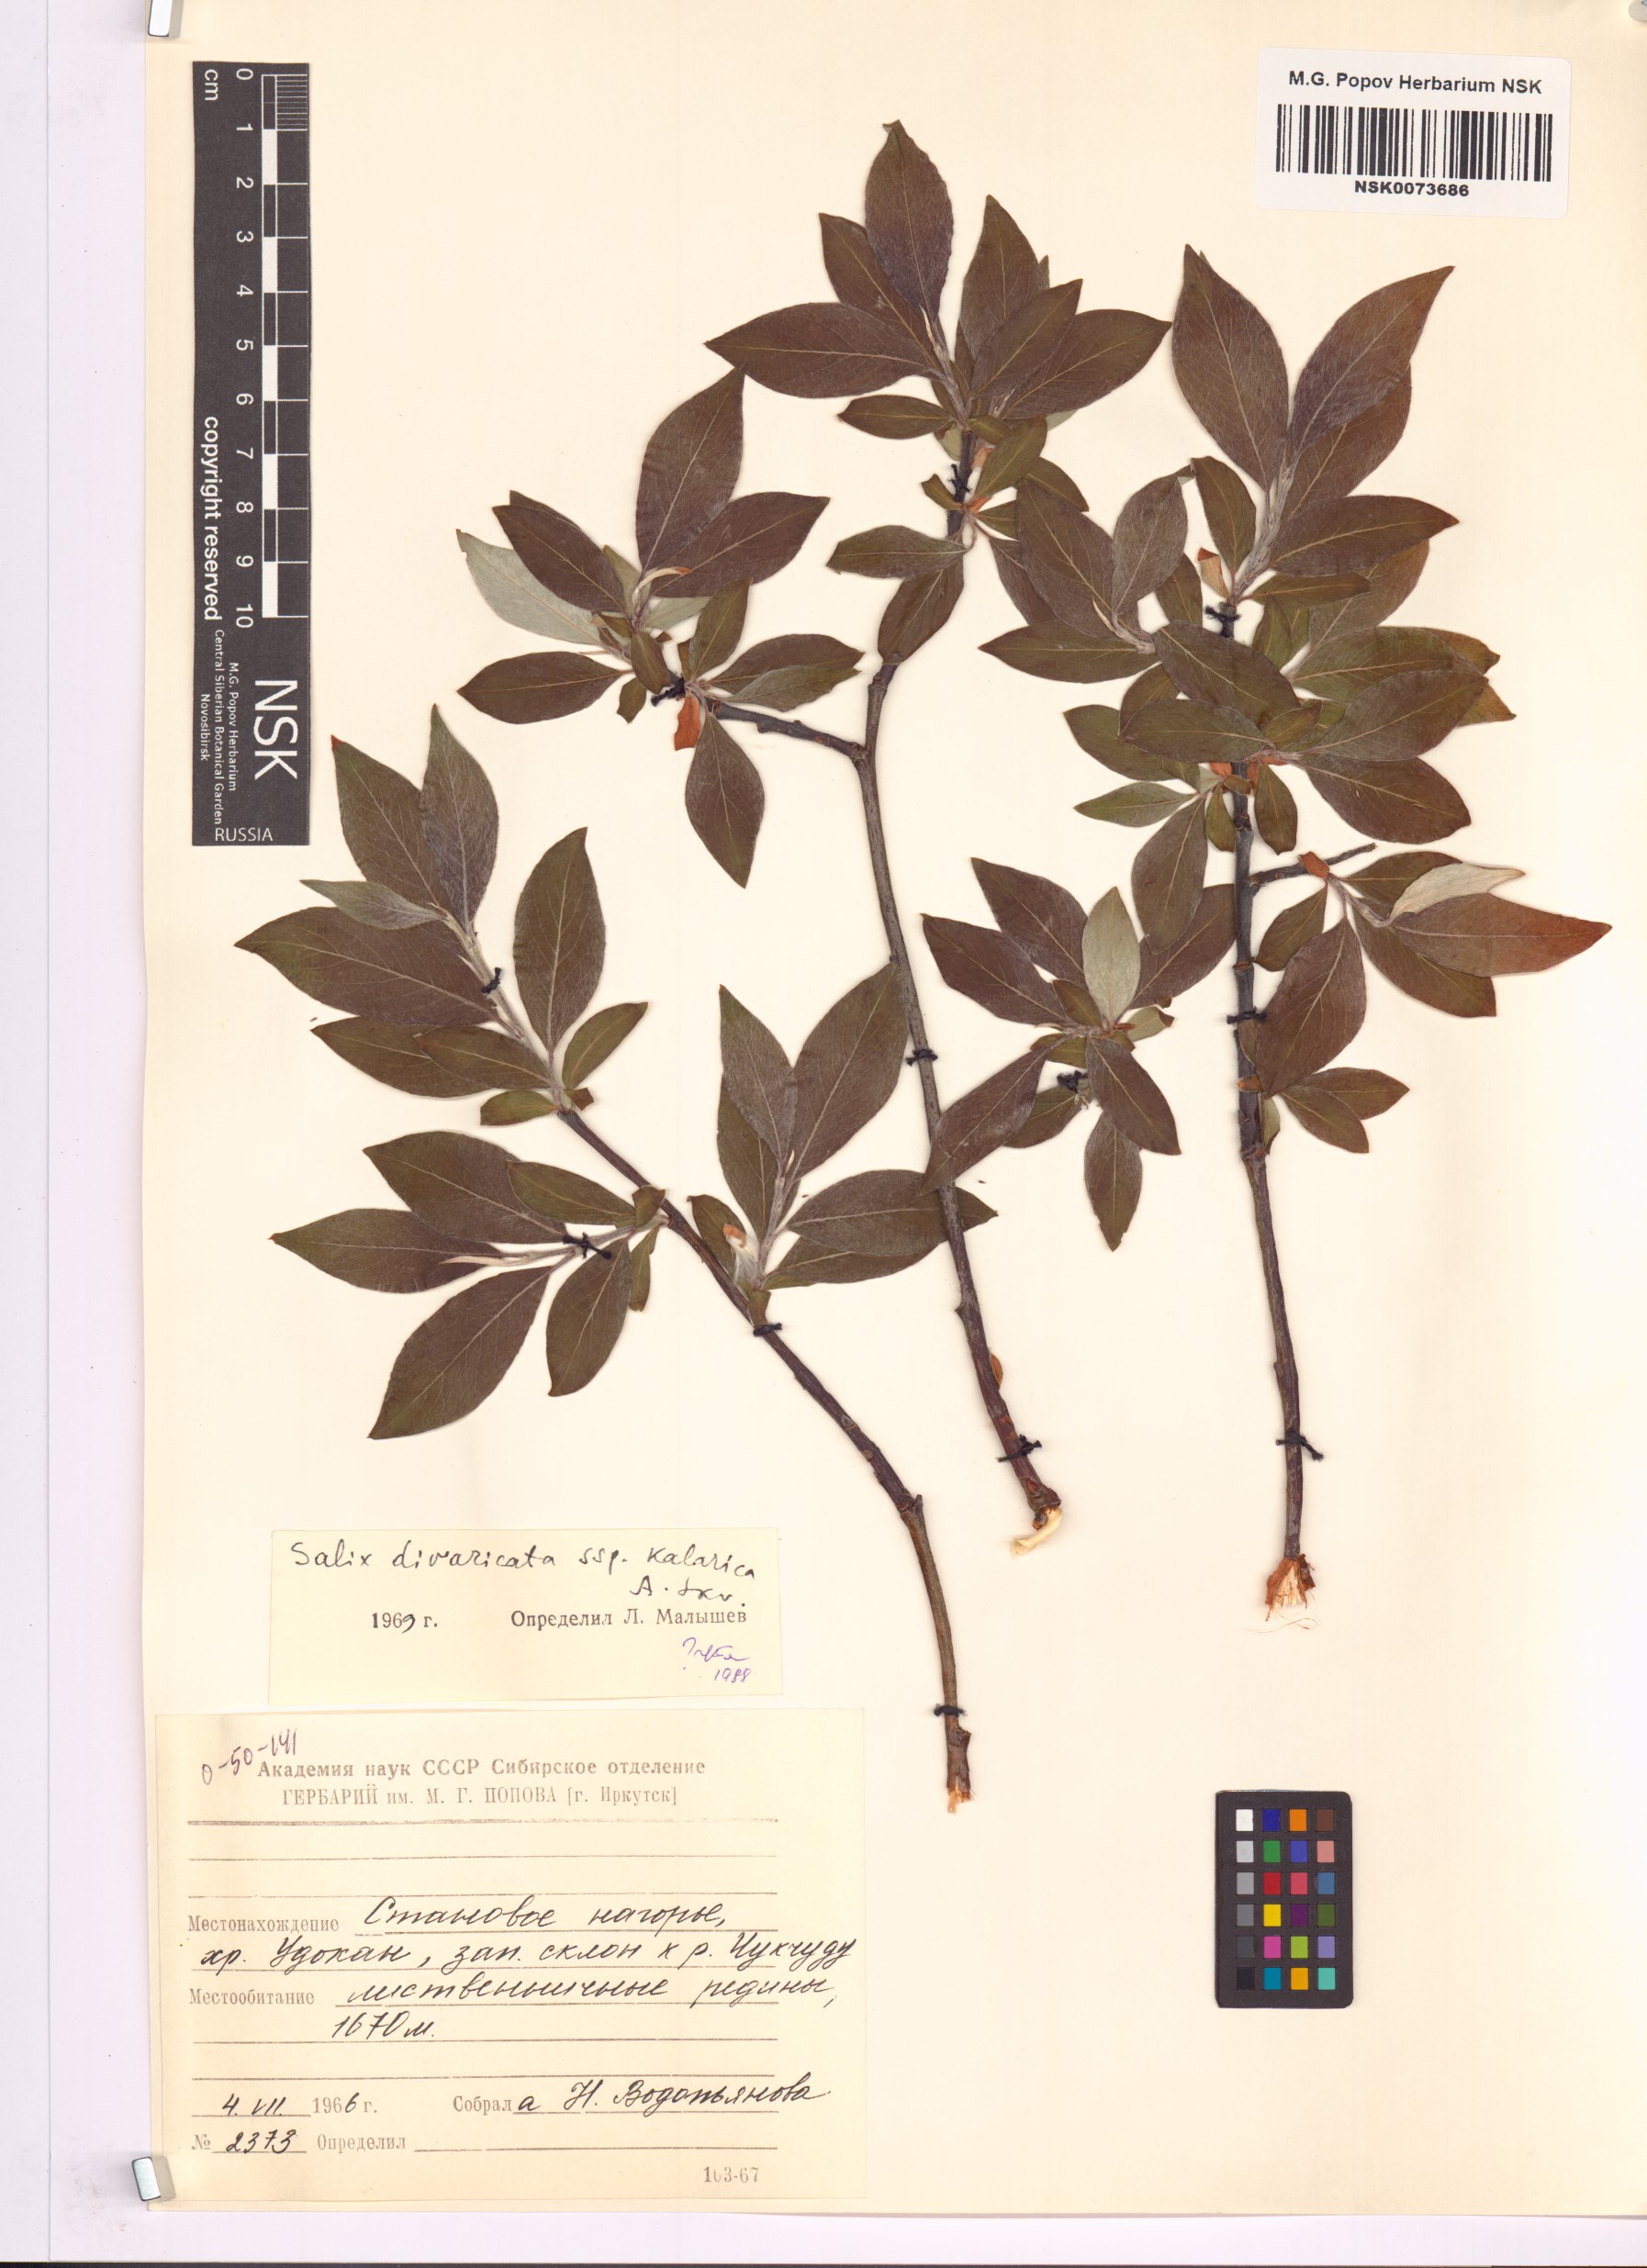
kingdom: Plantae
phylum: Tracheophyta
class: Magnoliopsida
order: Malpighiales
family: Salicaceae
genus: Salix
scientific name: Salix kalarica
